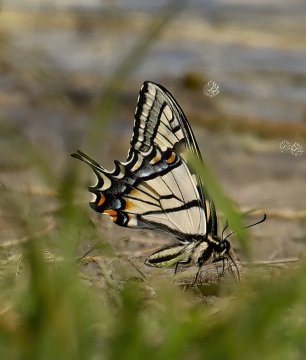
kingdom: Animalia
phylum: Arthropoda
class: Insecta
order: Lepidoptera
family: Papilionidae
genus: Pterourus
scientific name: Pterourus canadensis
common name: Canadian Tiger Swallowtail
